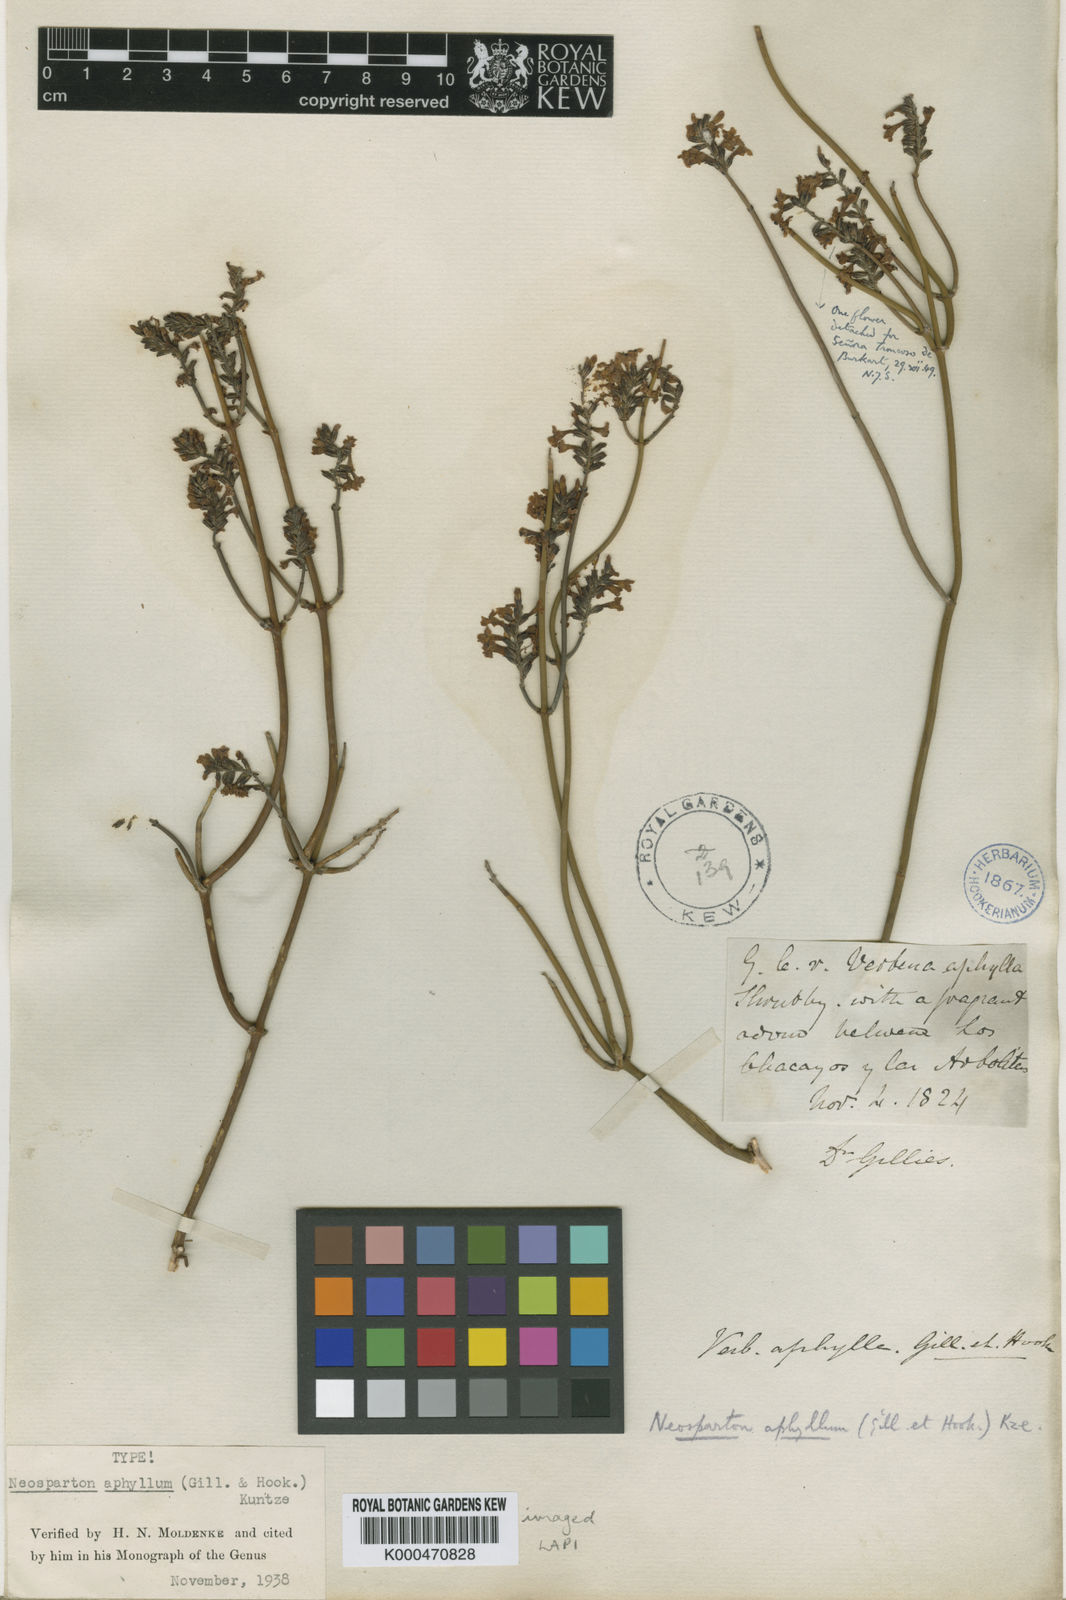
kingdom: Plantae
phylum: Tracheophyta
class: Magnoliopsida
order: Lamiales
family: Verbenaceae
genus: Neosparton
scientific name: Neosparton aphyllum
